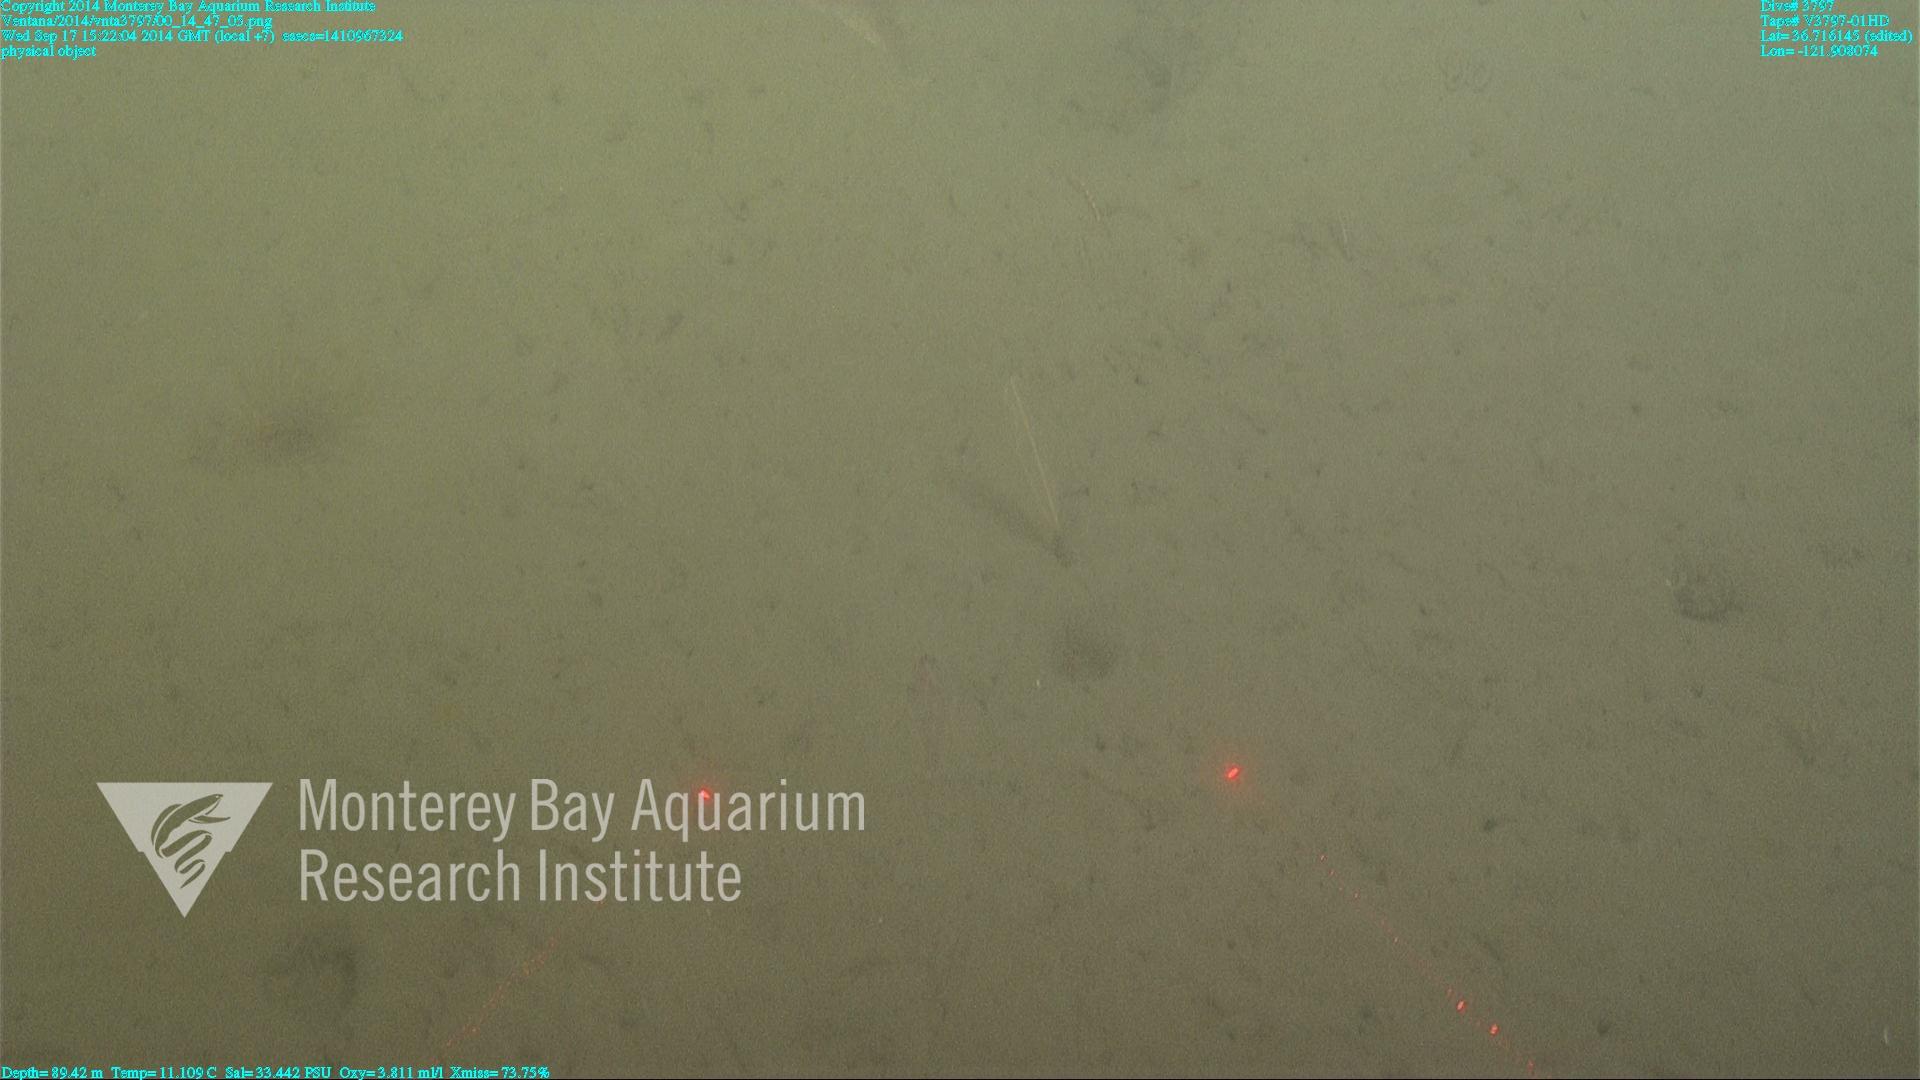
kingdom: Animalia
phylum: Cnidaria
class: Anthozoa
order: Scleralcyonacea
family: Virgulariidae
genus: Acanthoptilum
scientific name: Acanthoptilum
